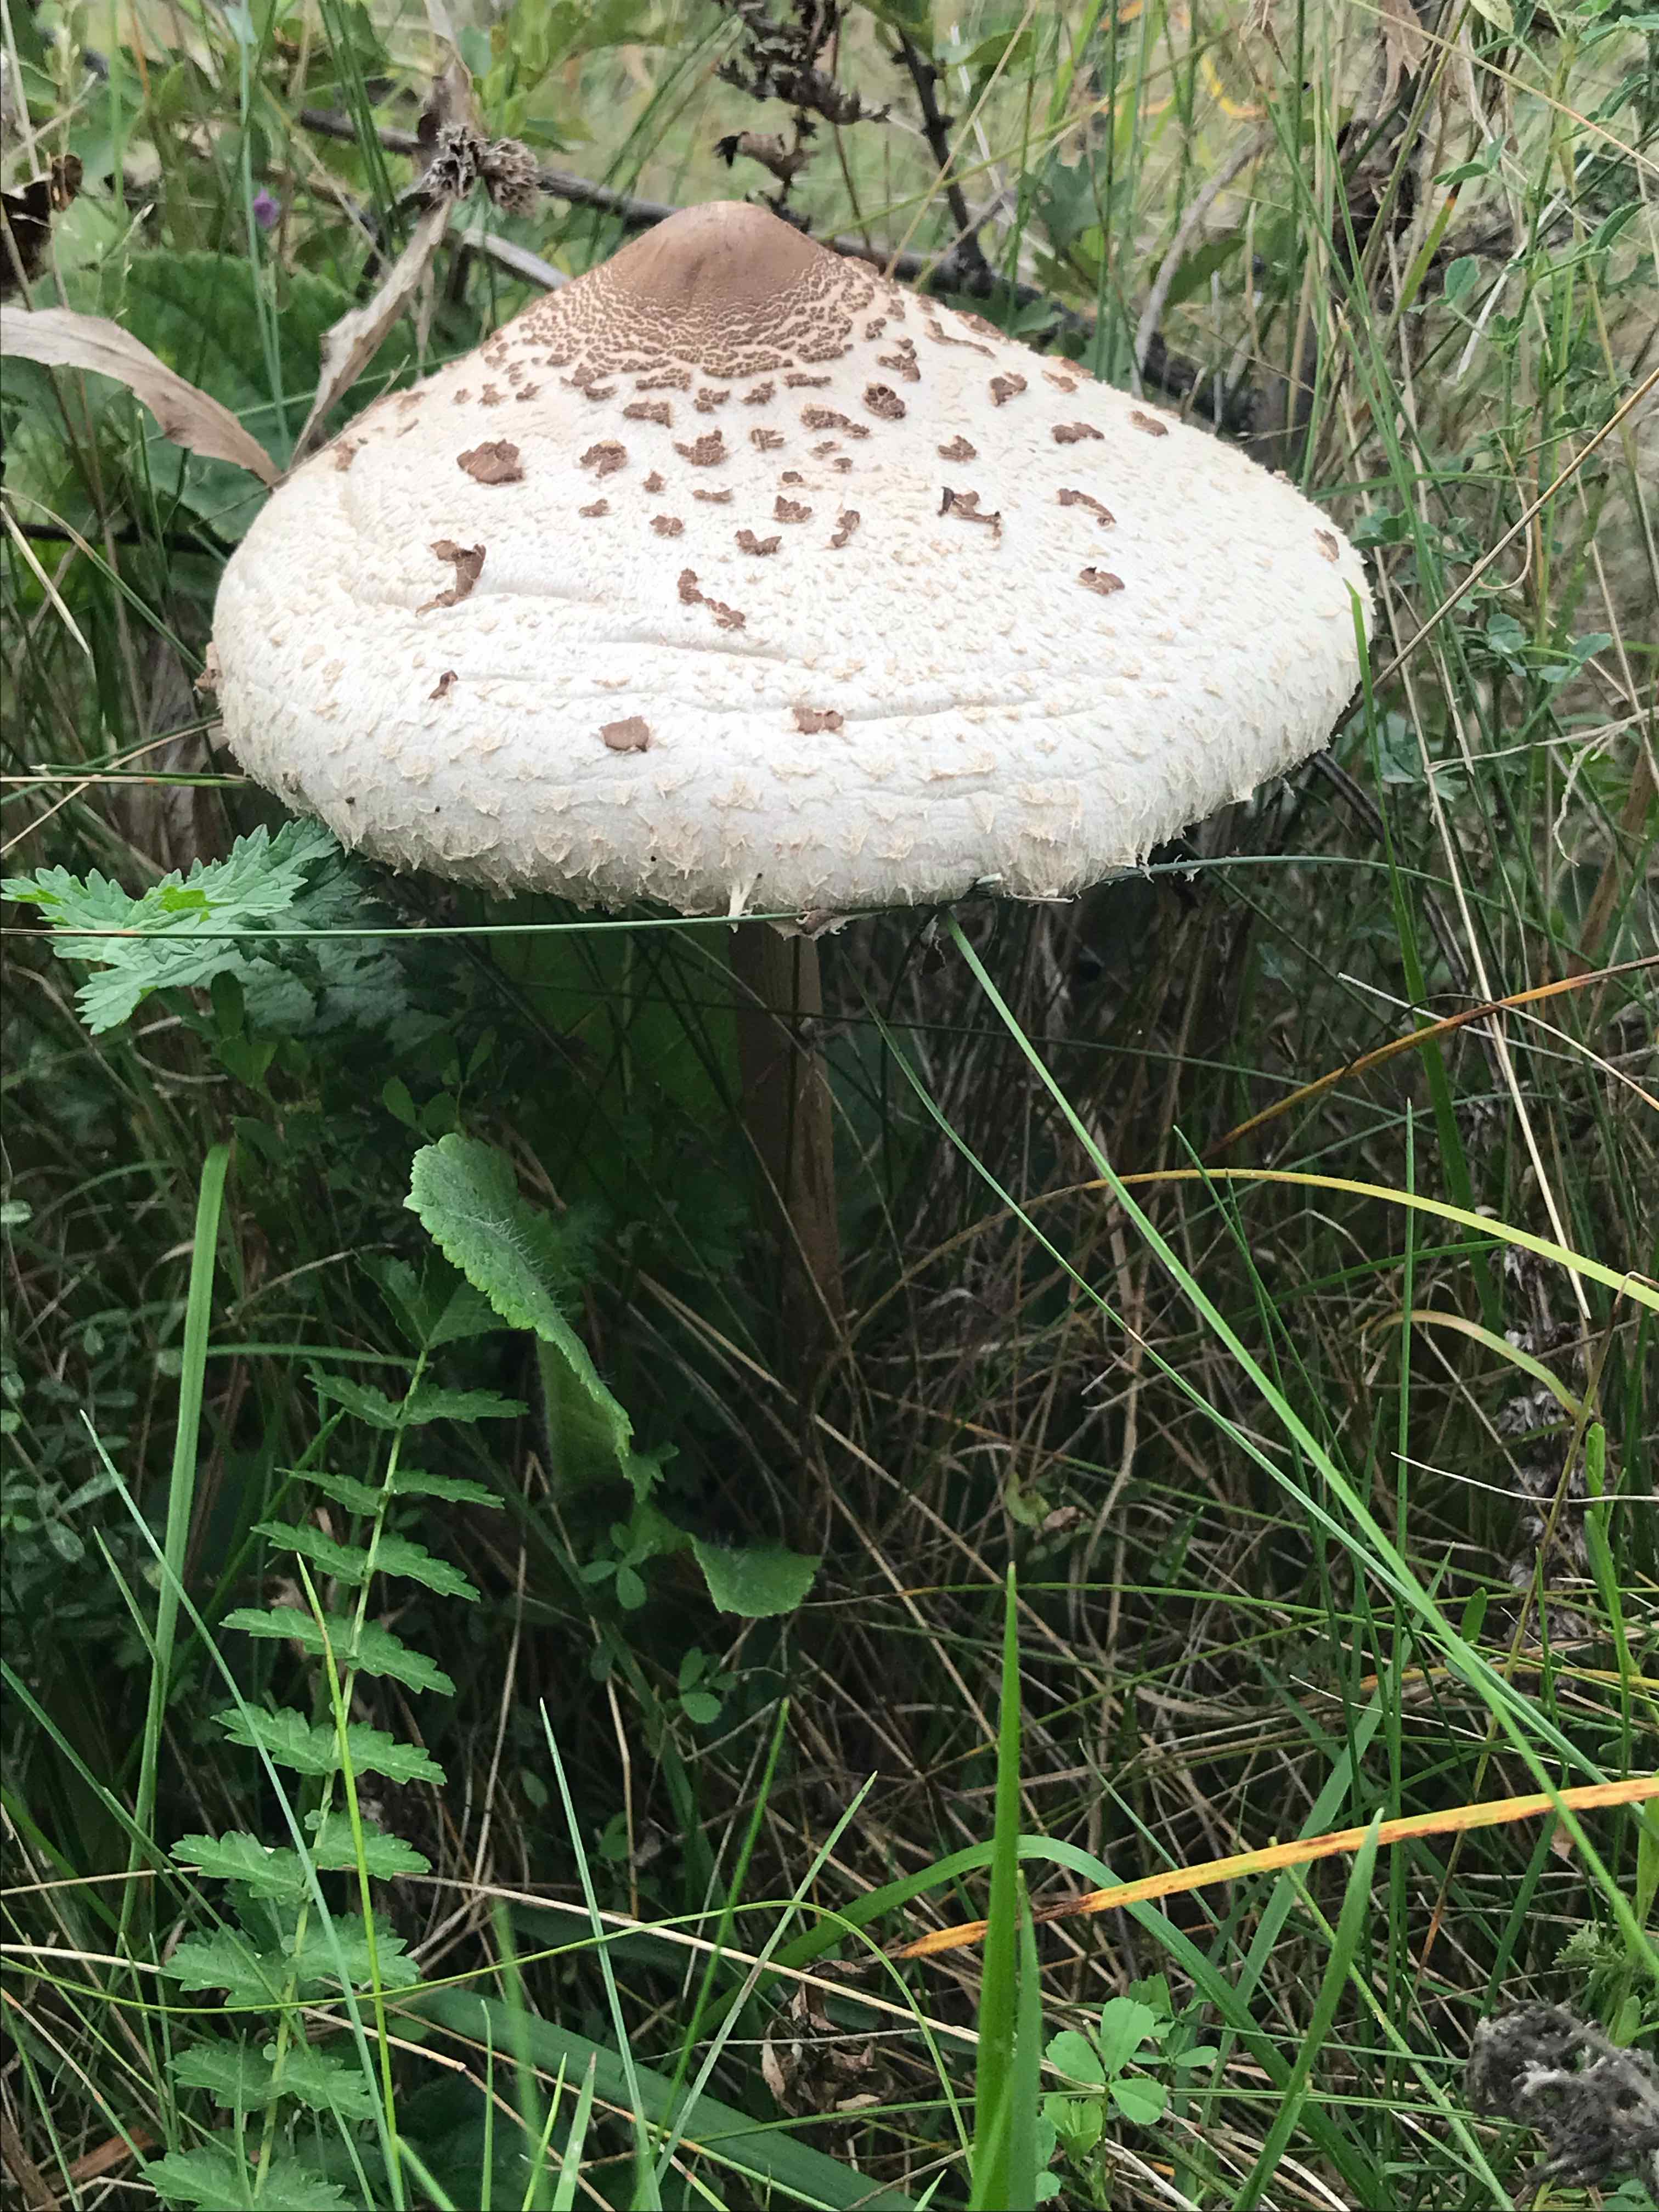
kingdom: Fungi
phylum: Basidiomycota
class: Agaricomycetes
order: Agaricales
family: Agaricaceae
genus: Macrolepiota
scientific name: Macrolepiota procera
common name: stor kæmpeparasolhat
